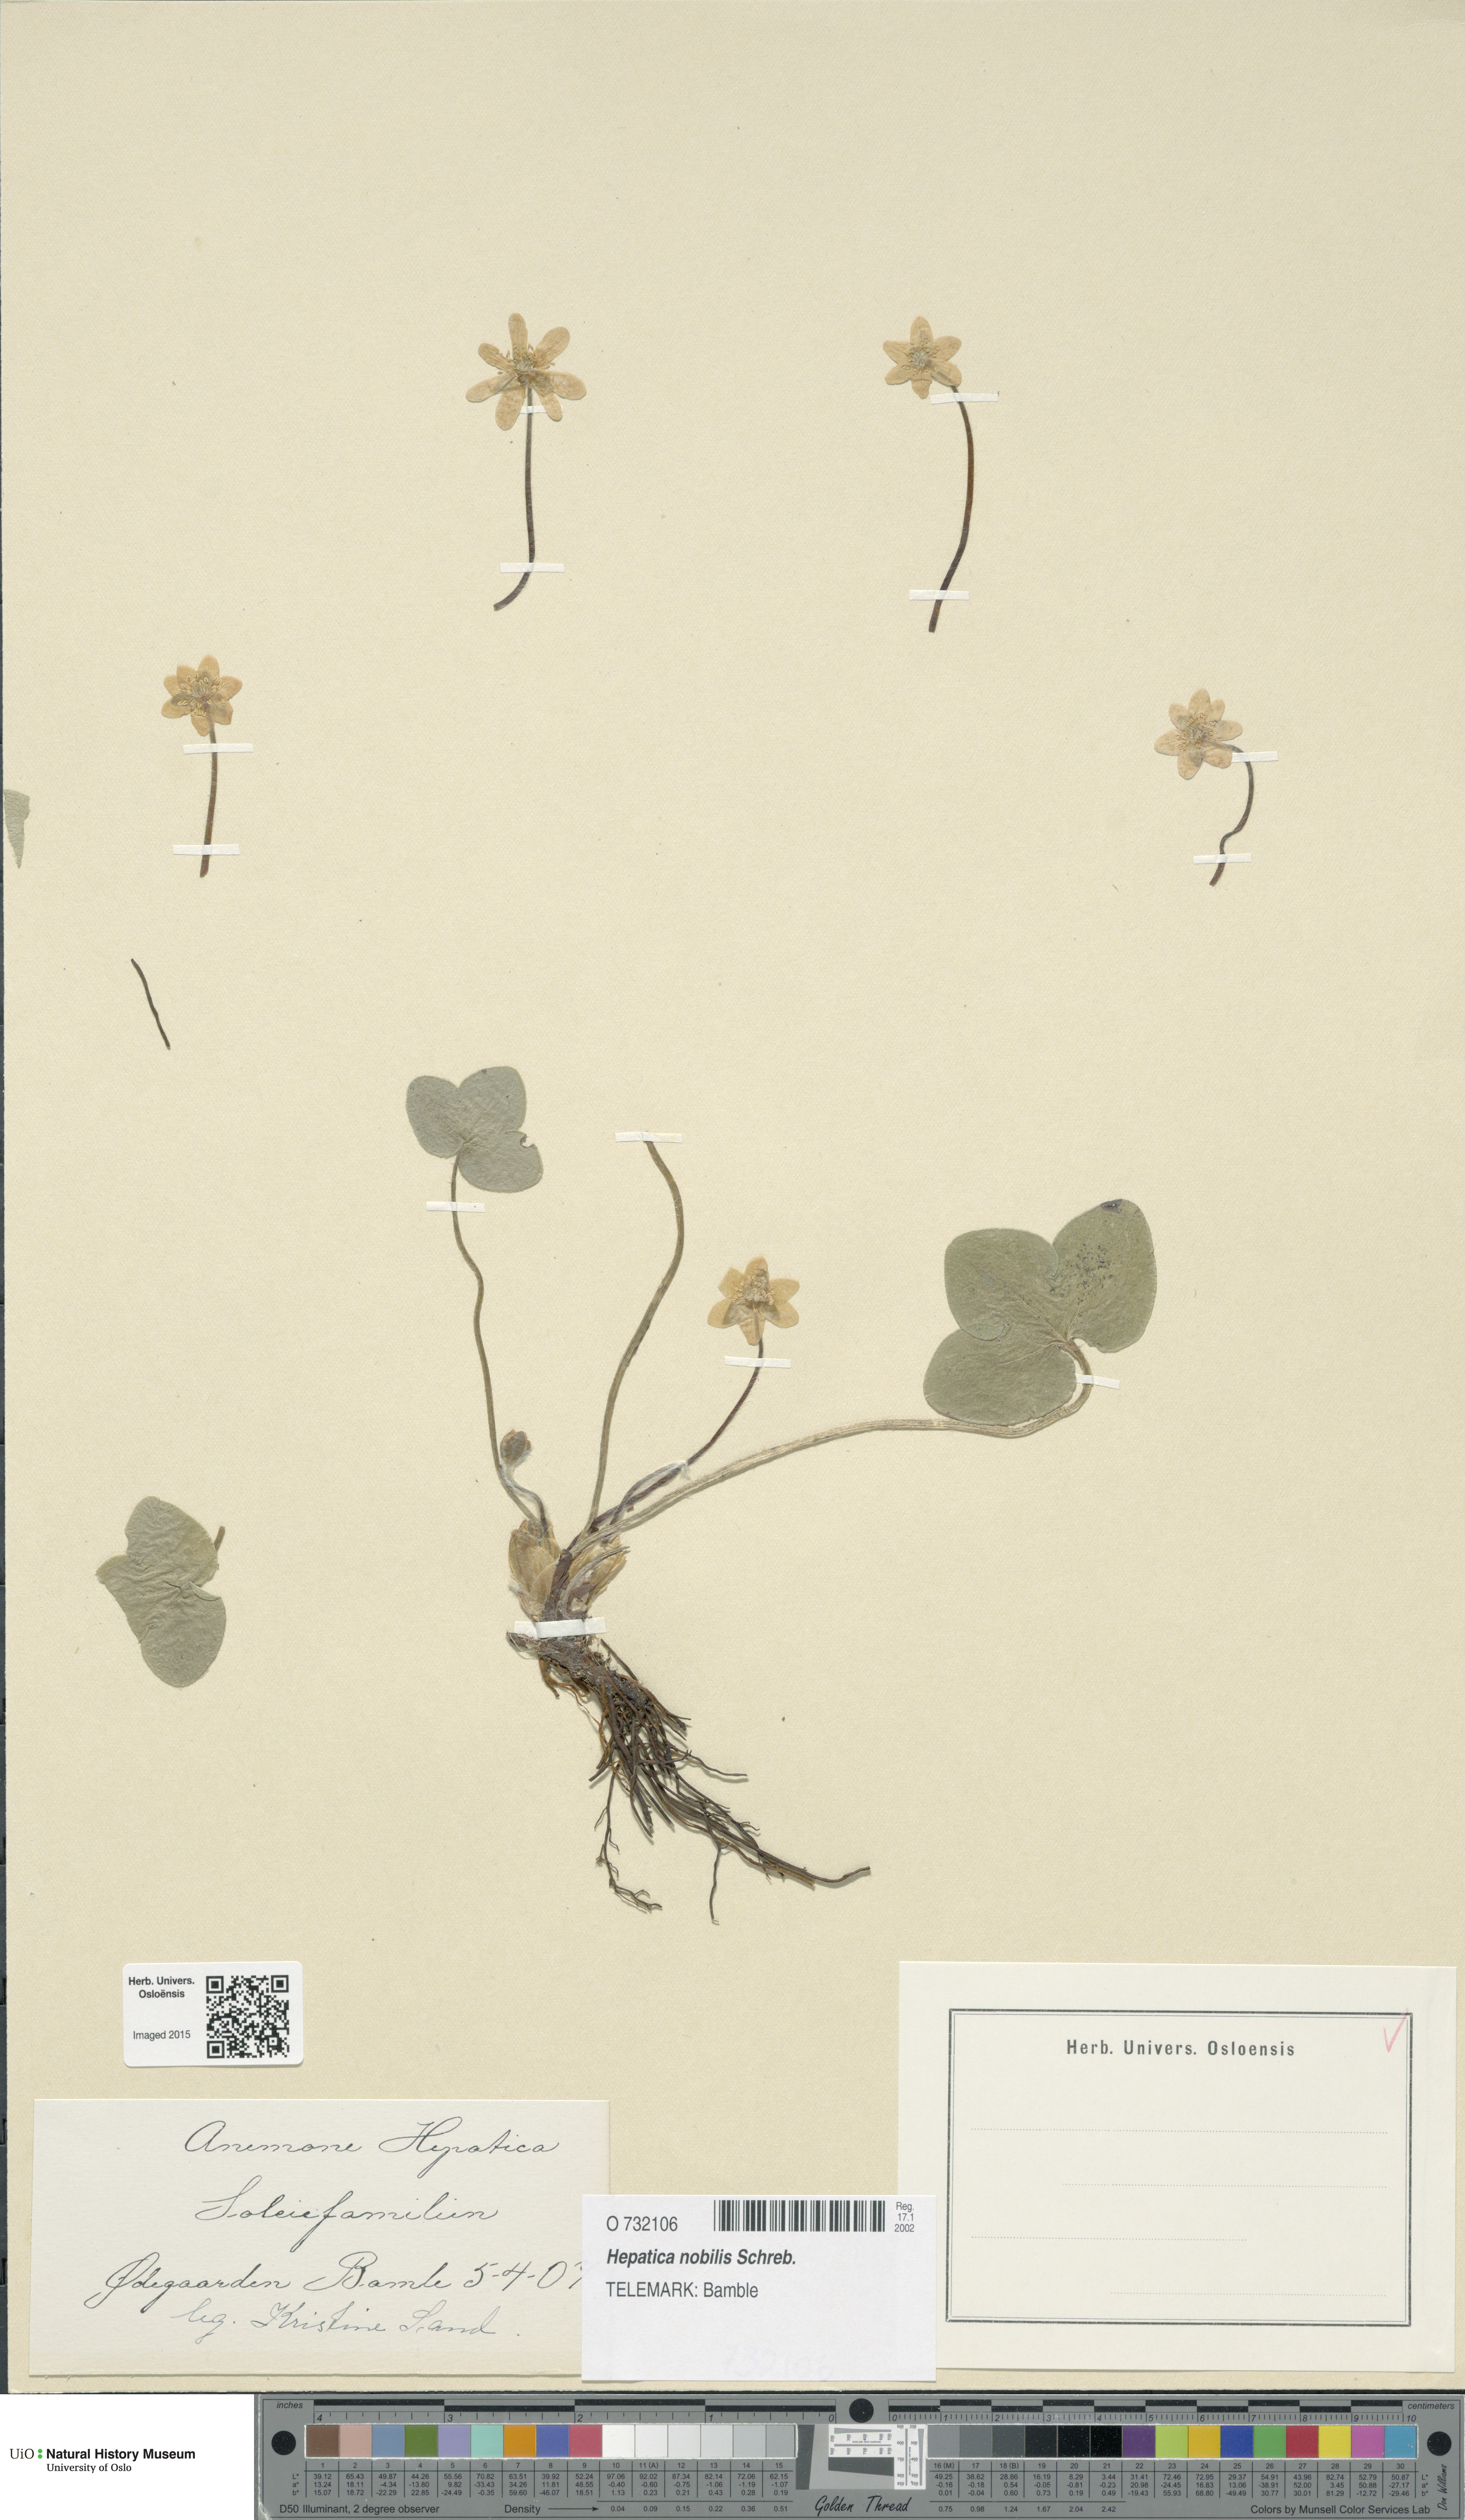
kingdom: Plantae
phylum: Tracheophyta
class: Magnoliopsida
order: Ranunculales
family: Ranunculaceae
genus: Hepatica
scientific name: Hepatica nobilis
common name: Liverleaf
